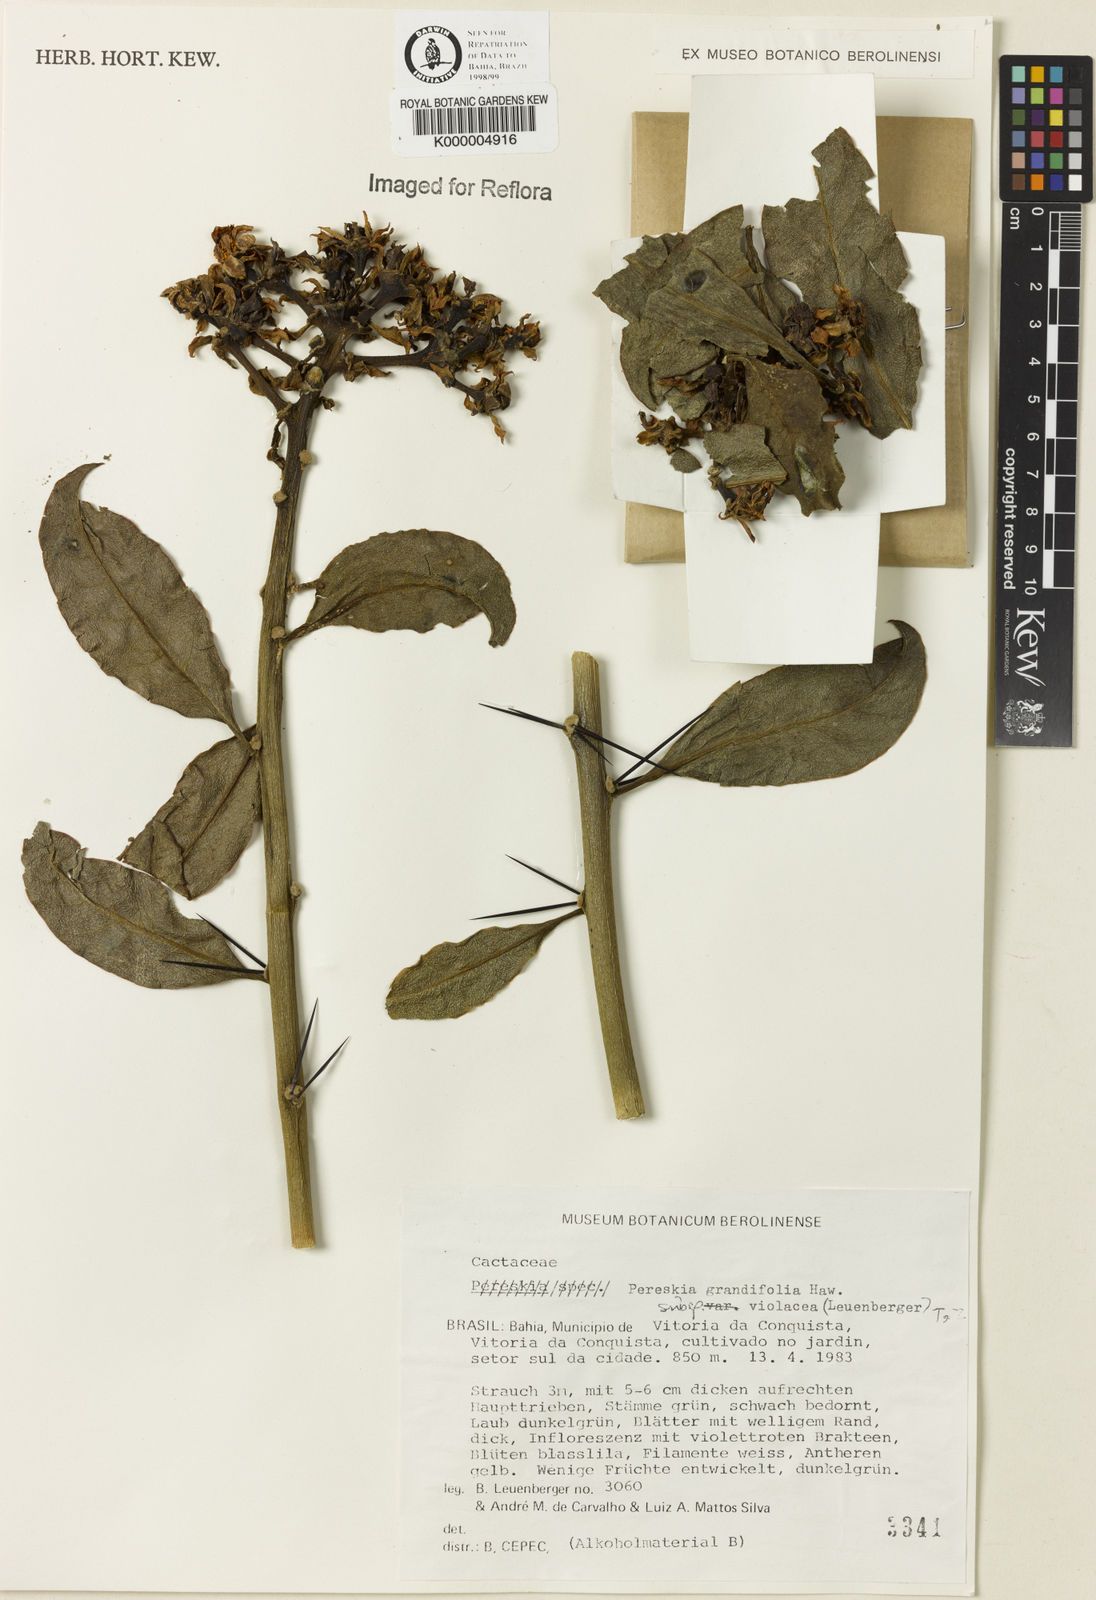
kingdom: Plantae
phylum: Tracheophyta
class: Magnoliopsida
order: Caryophyllales
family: Cactaceae
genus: Pereskia
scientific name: Pereskia grandifolia
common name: Rose cactus
